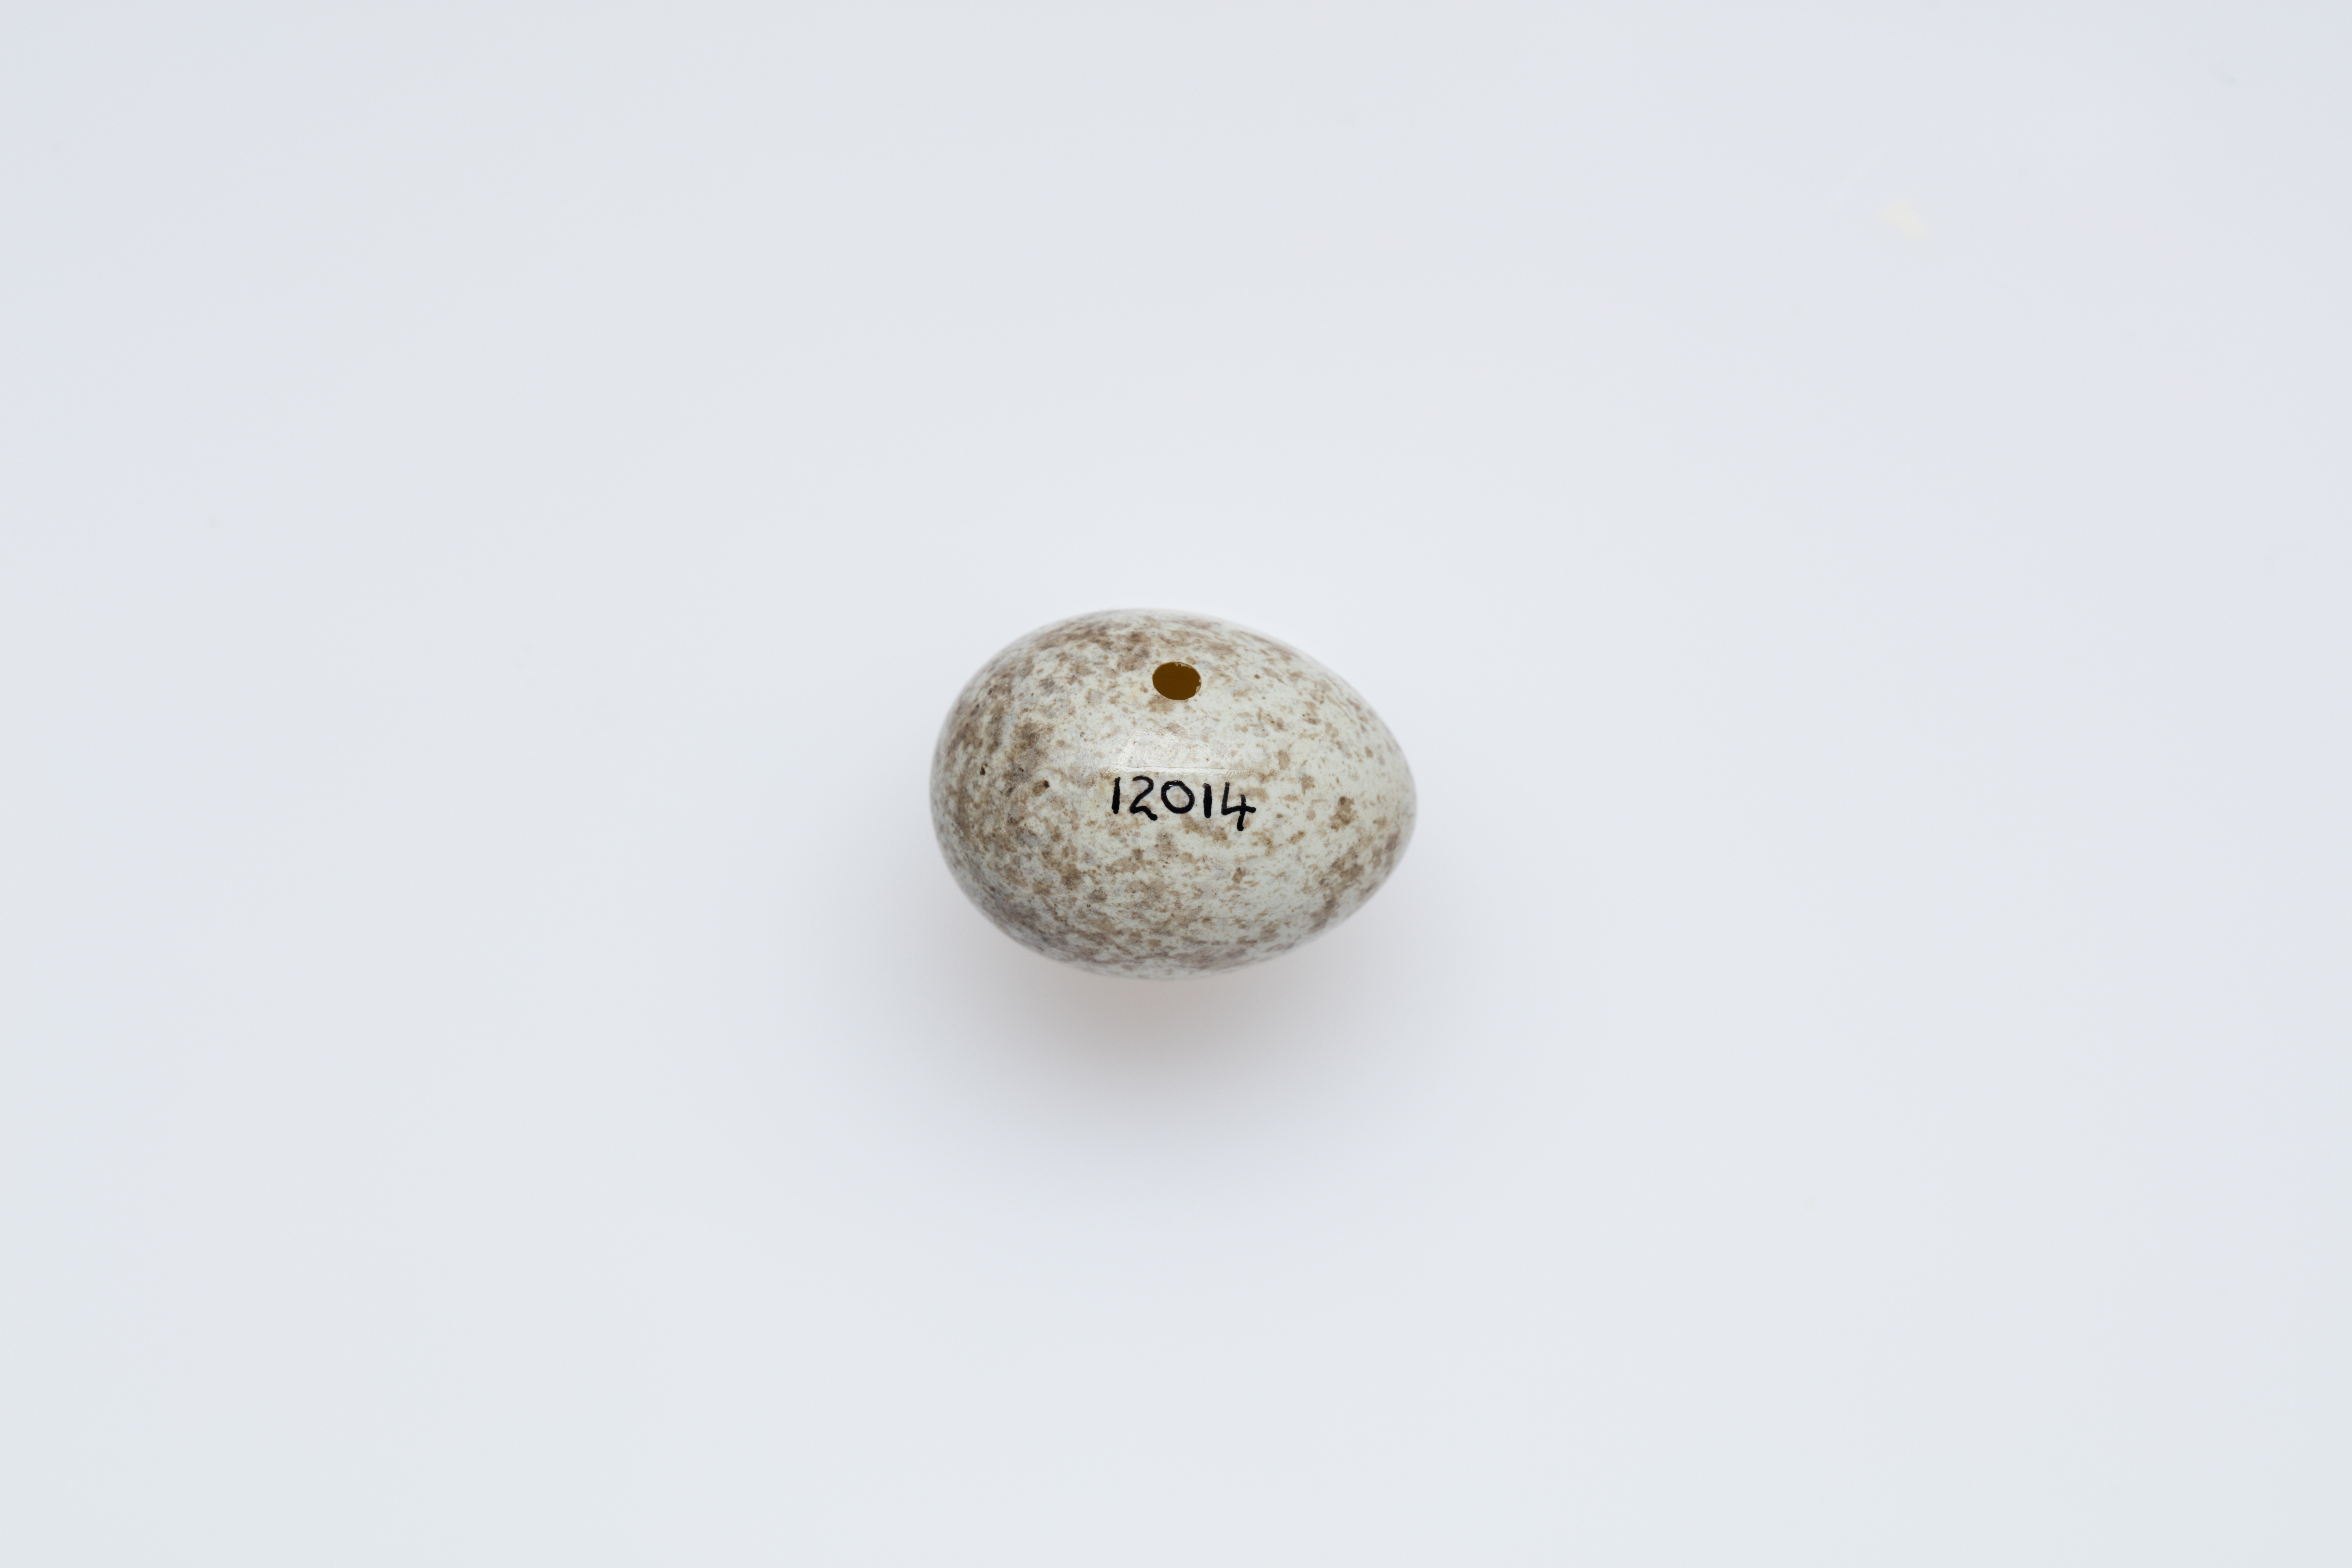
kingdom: Animalia
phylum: Chordata
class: Aves
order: Cuculiformes
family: Cuculidae
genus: Cuculus
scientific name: Cuculus canorus
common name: Common cuckoo
